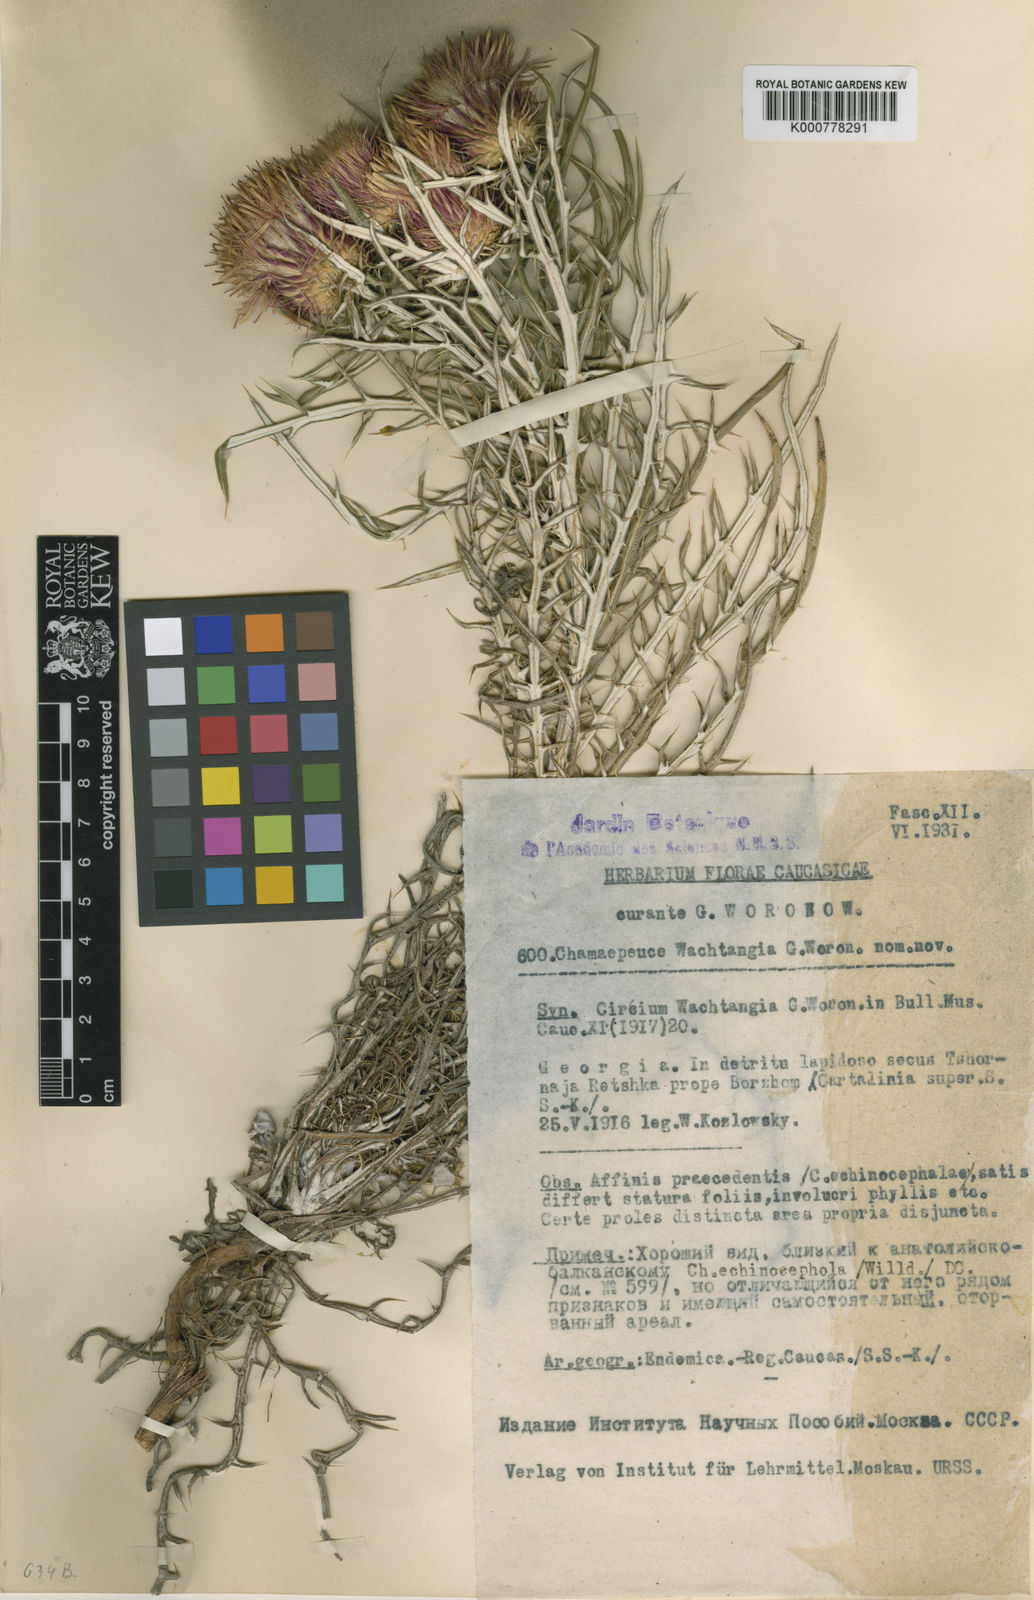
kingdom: Plantae
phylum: Tracheophyta
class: Magnoliopsida
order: Asterales
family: Asteraceae
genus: Ptilostemon
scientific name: Ptilostemon echinocephalus
